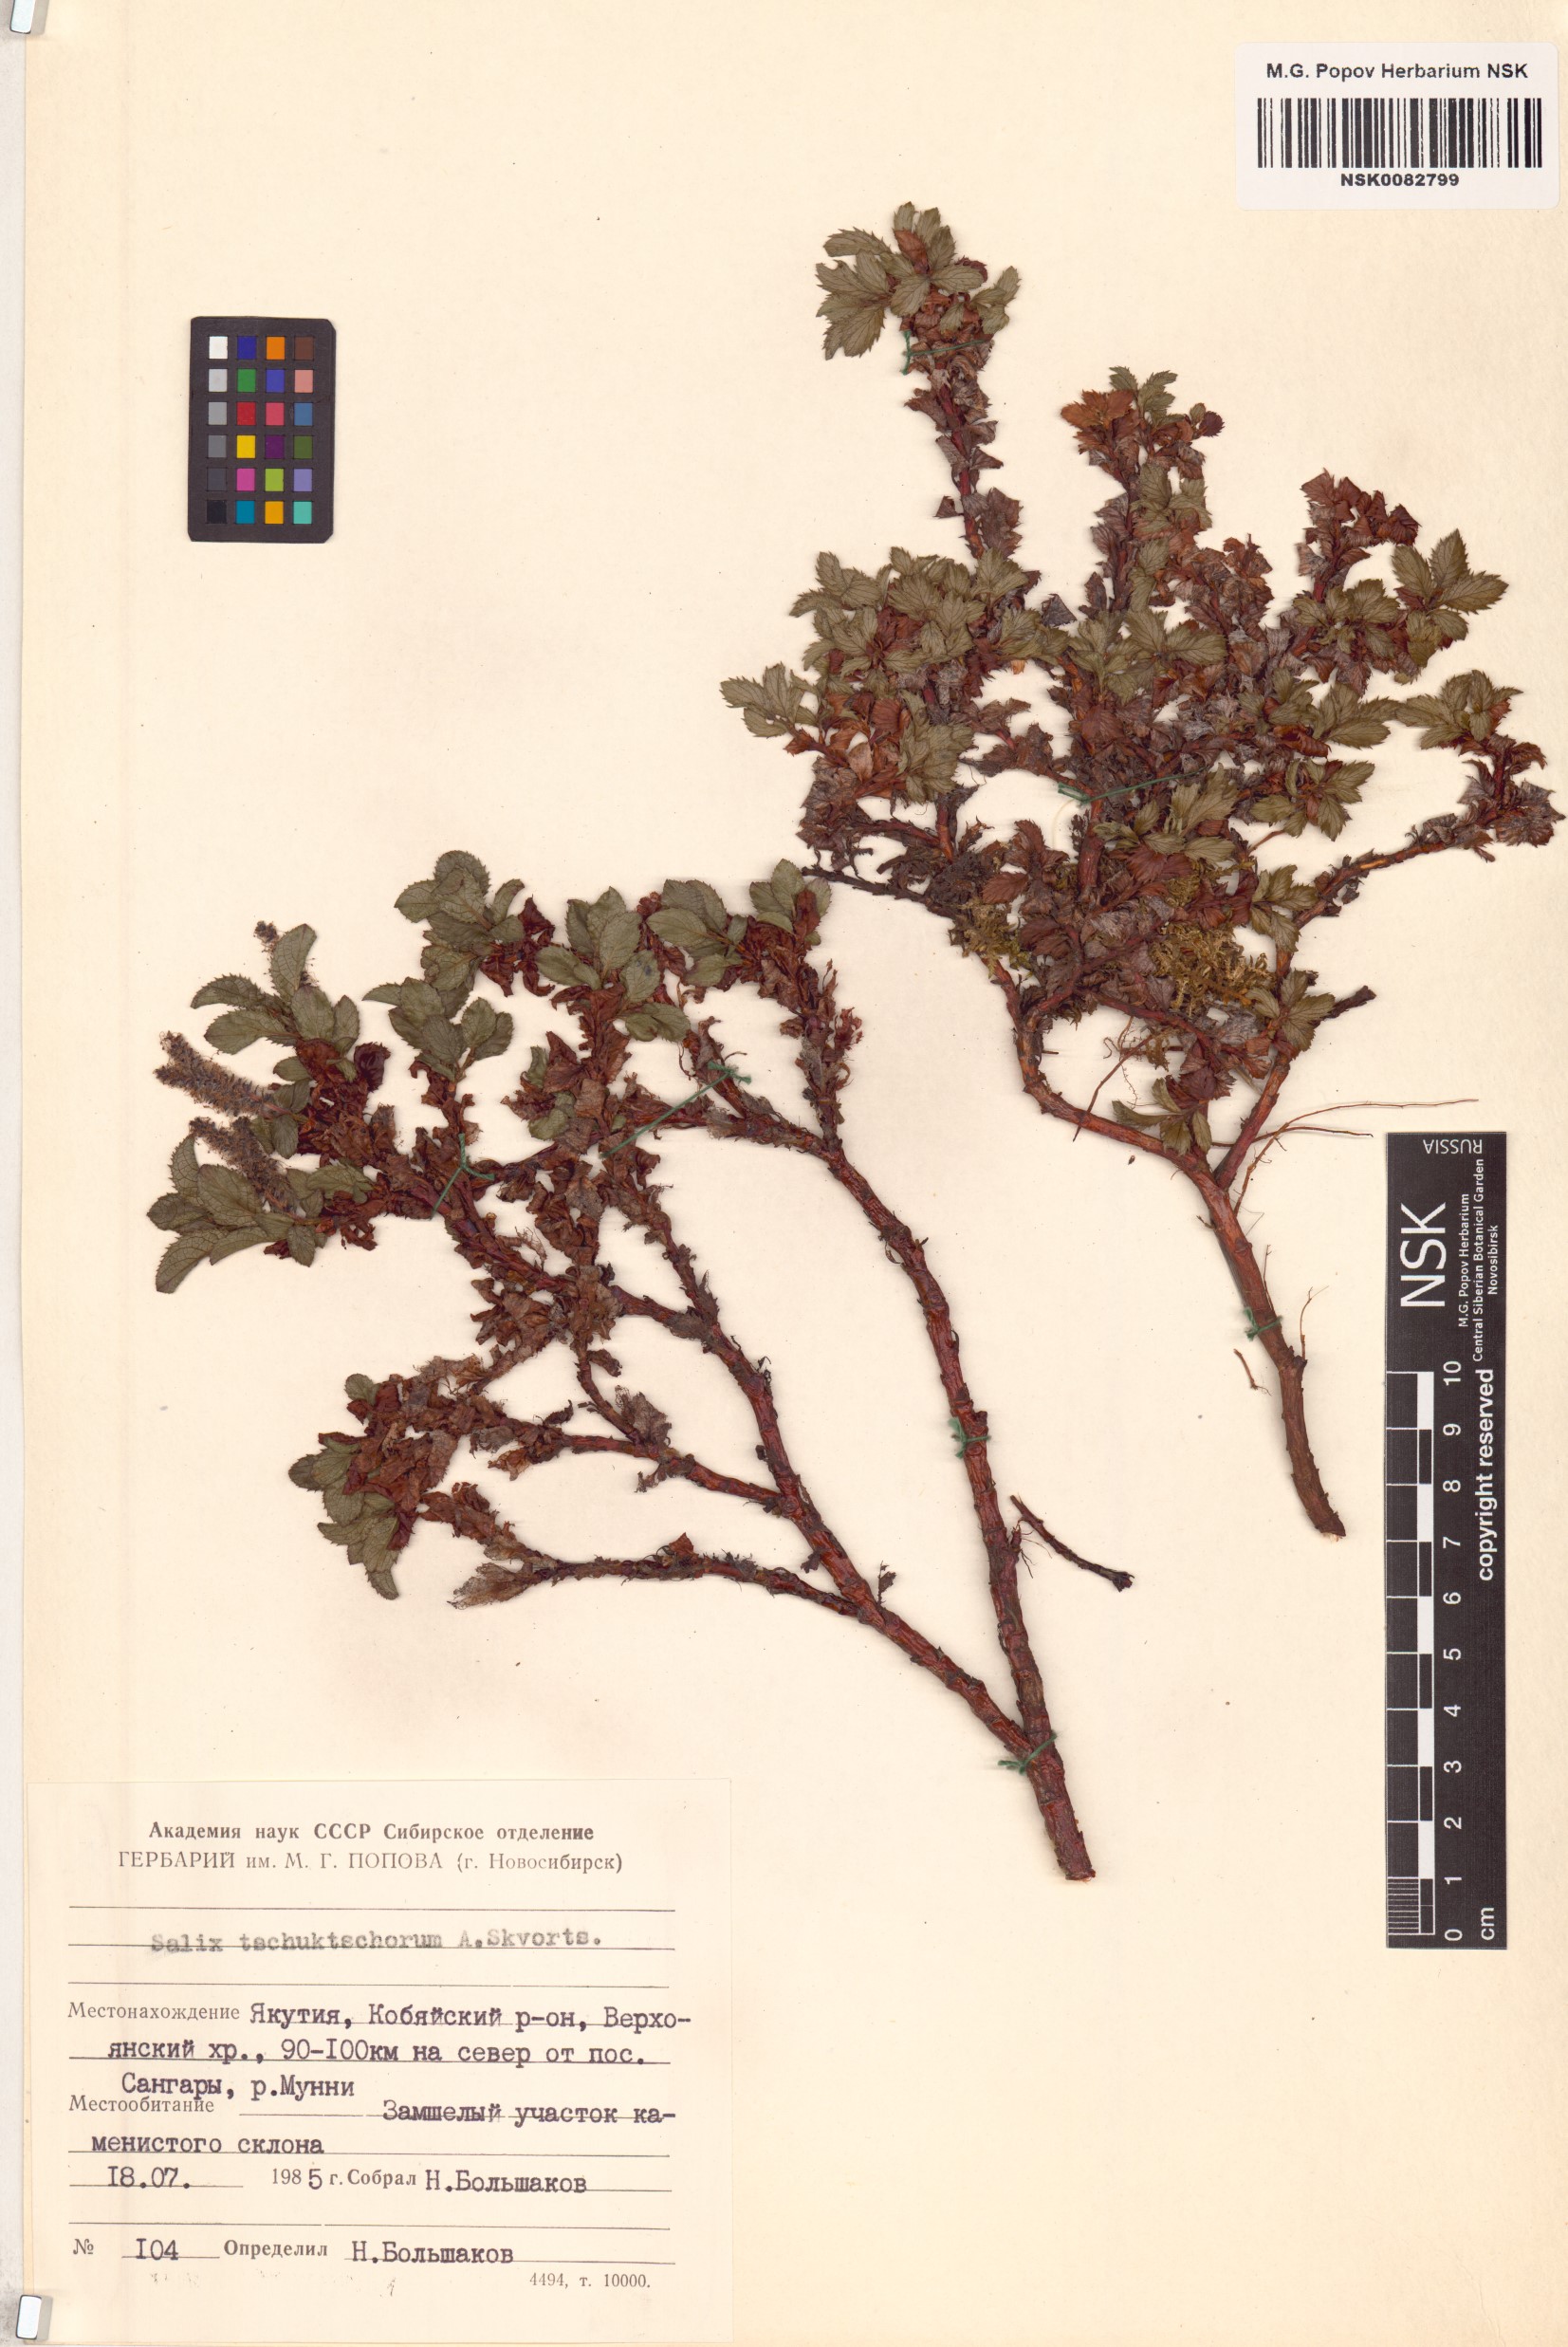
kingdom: Plantae
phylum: Tracheophyta
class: Magnoliopsida
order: Malpighiales
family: Salicaceae
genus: Salix
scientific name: Salix tschuktschorum
